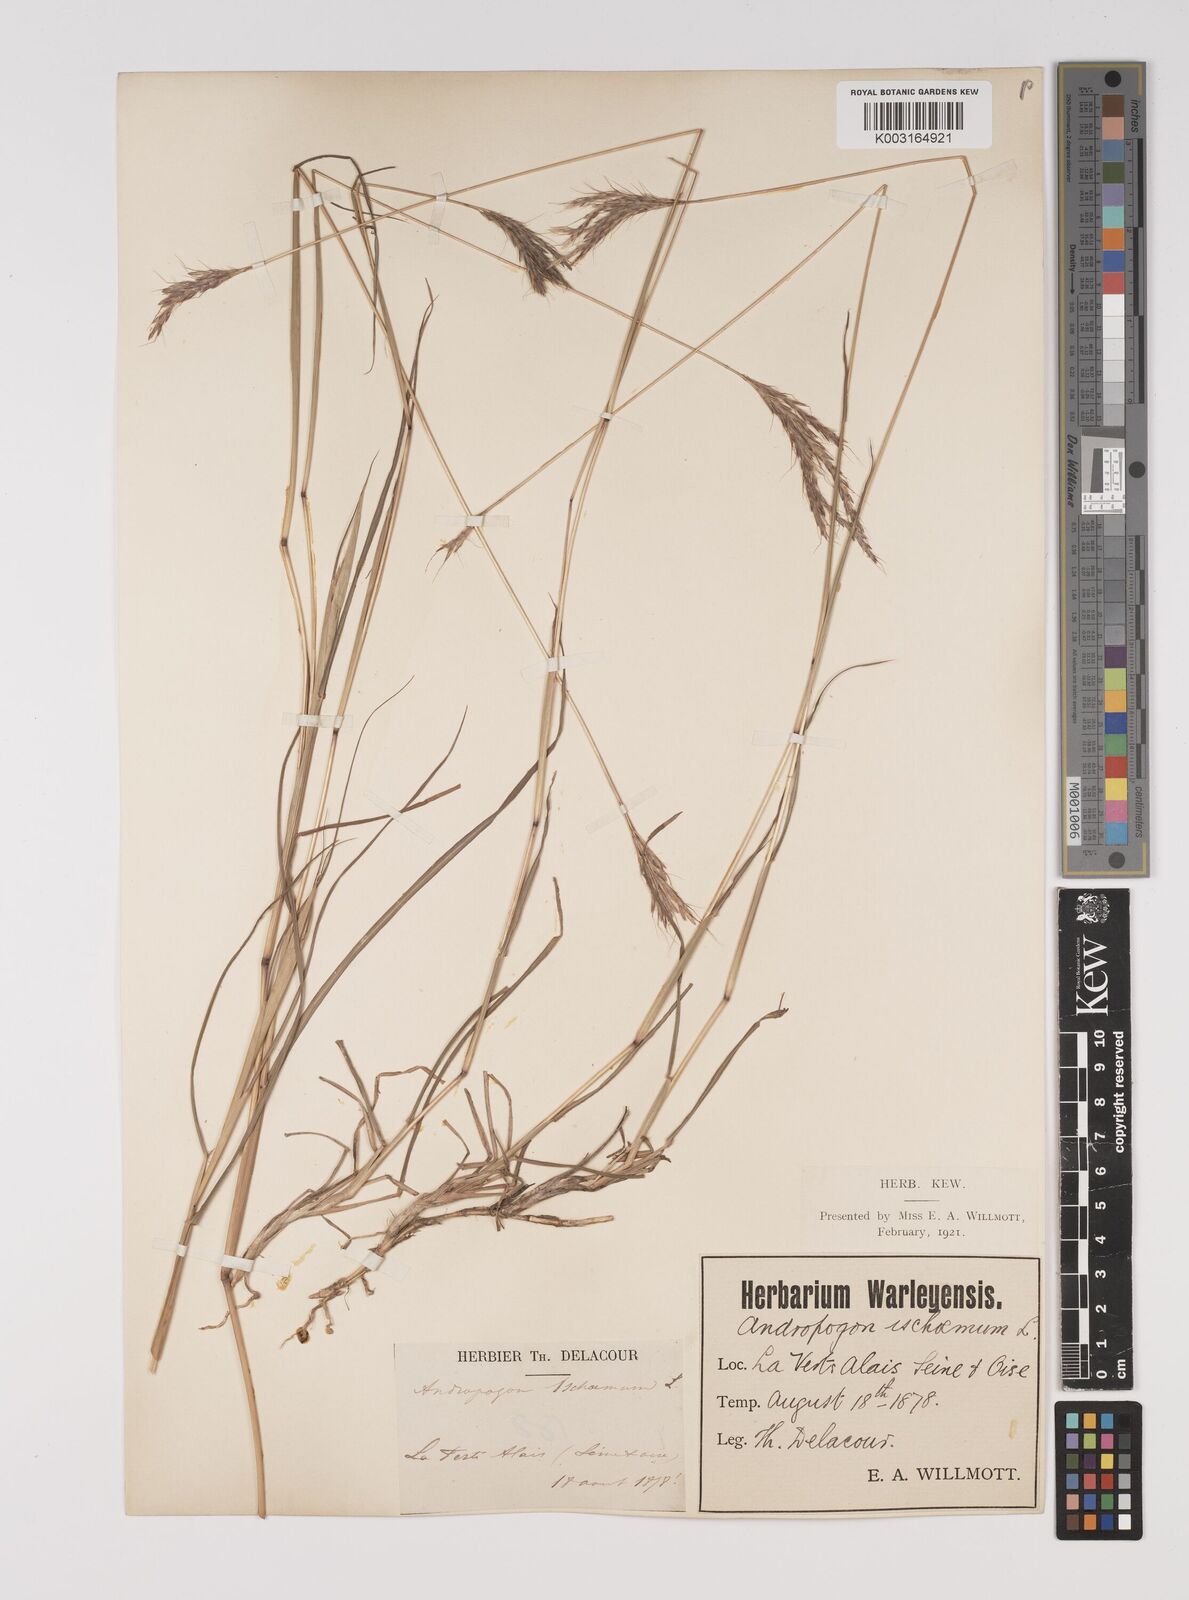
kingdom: Plantae
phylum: Tracheophyta
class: Liliopsida
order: Poales
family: Poaceae
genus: Bothriochloa
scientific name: Bothriochloa ischaemum
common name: Yellow bluestem
